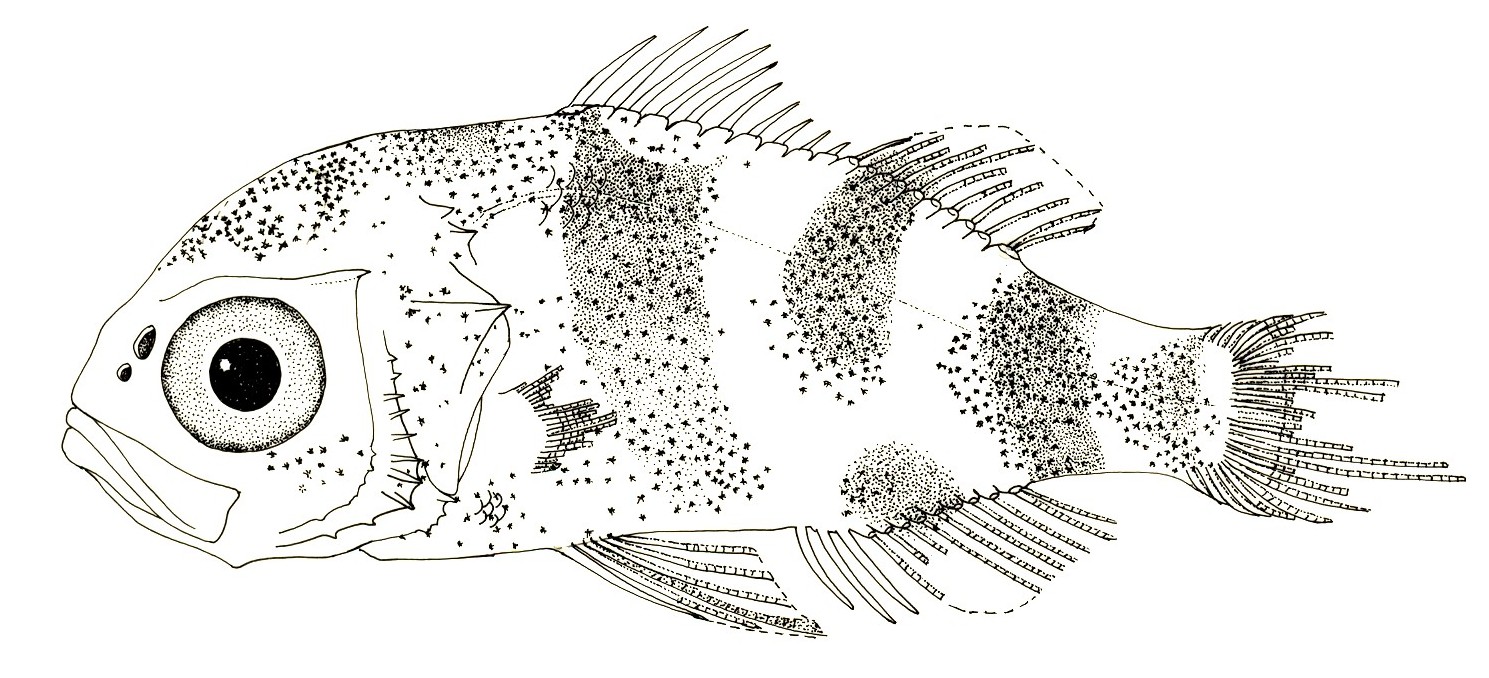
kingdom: Animalia
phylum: Chordata
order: Perciformes
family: Emmelichthyidae
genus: Erythrocles
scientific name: Erythrocles monodi
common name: Atlantic rubyfish
